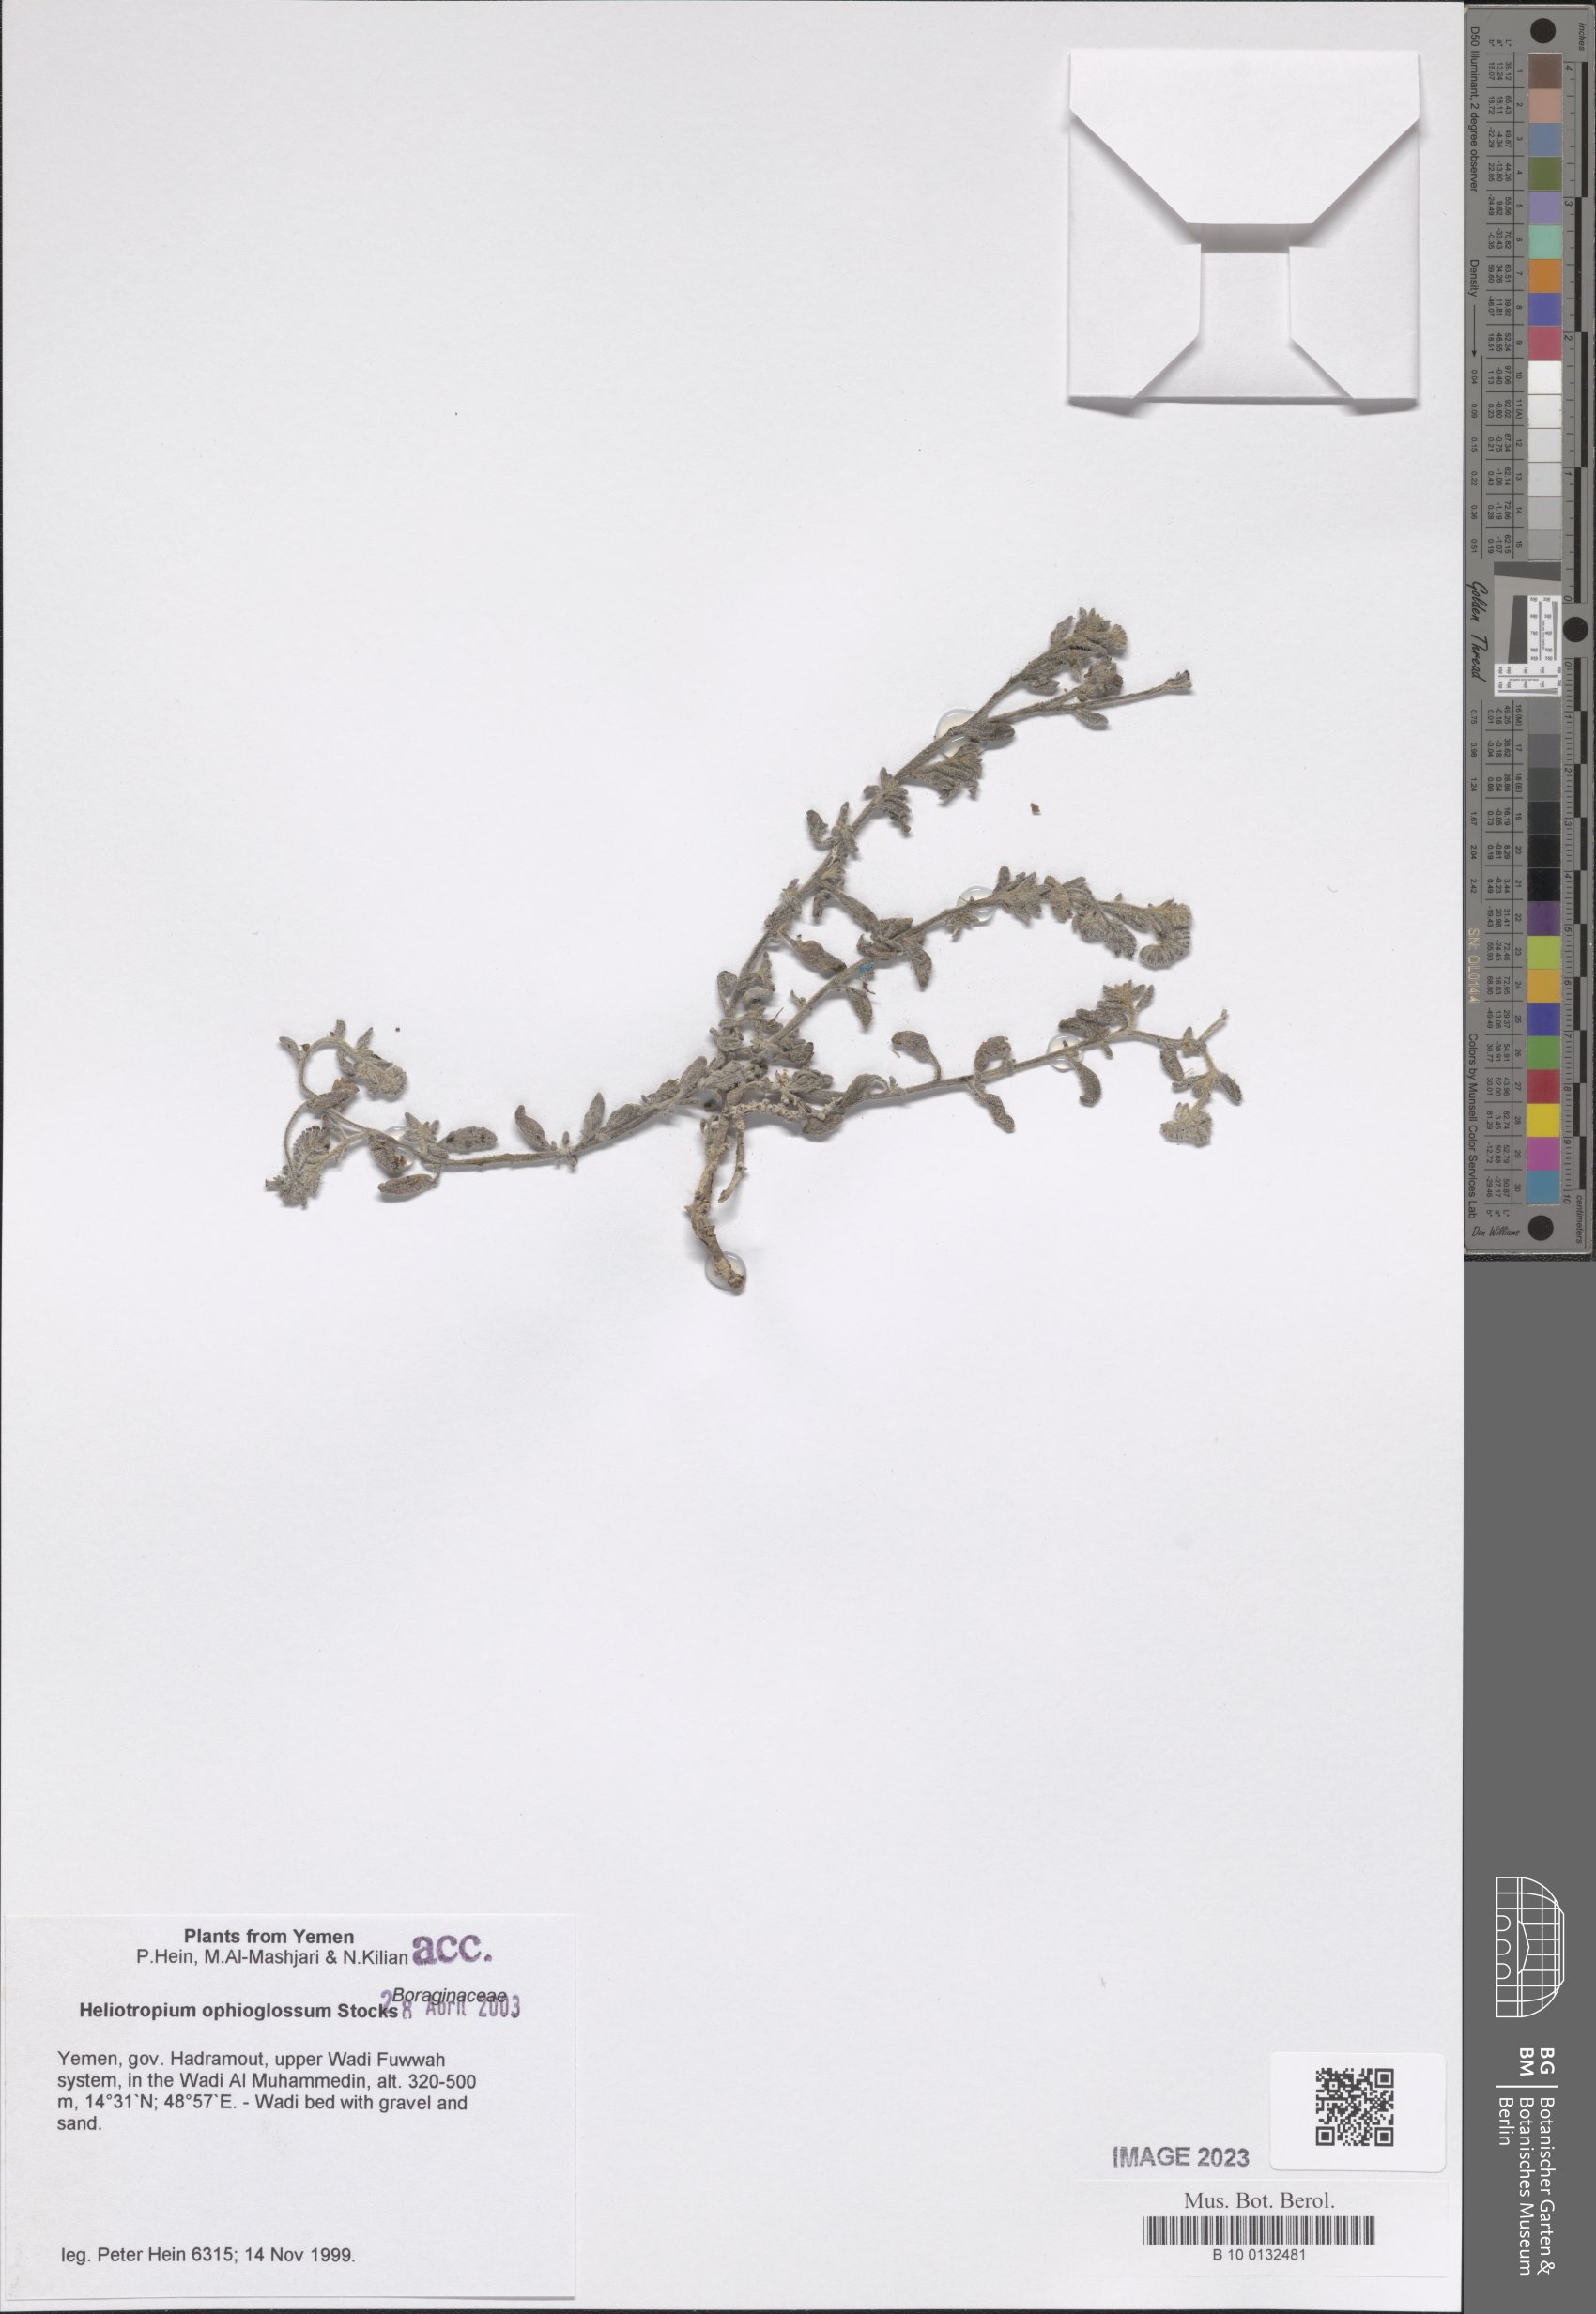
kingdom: Plantae
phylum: Tracheophyta
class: Magnoliopsida
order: Boraginales
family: Heliotropiaceae
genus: Heliotropium
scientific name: Heliotropium ophioglossum
